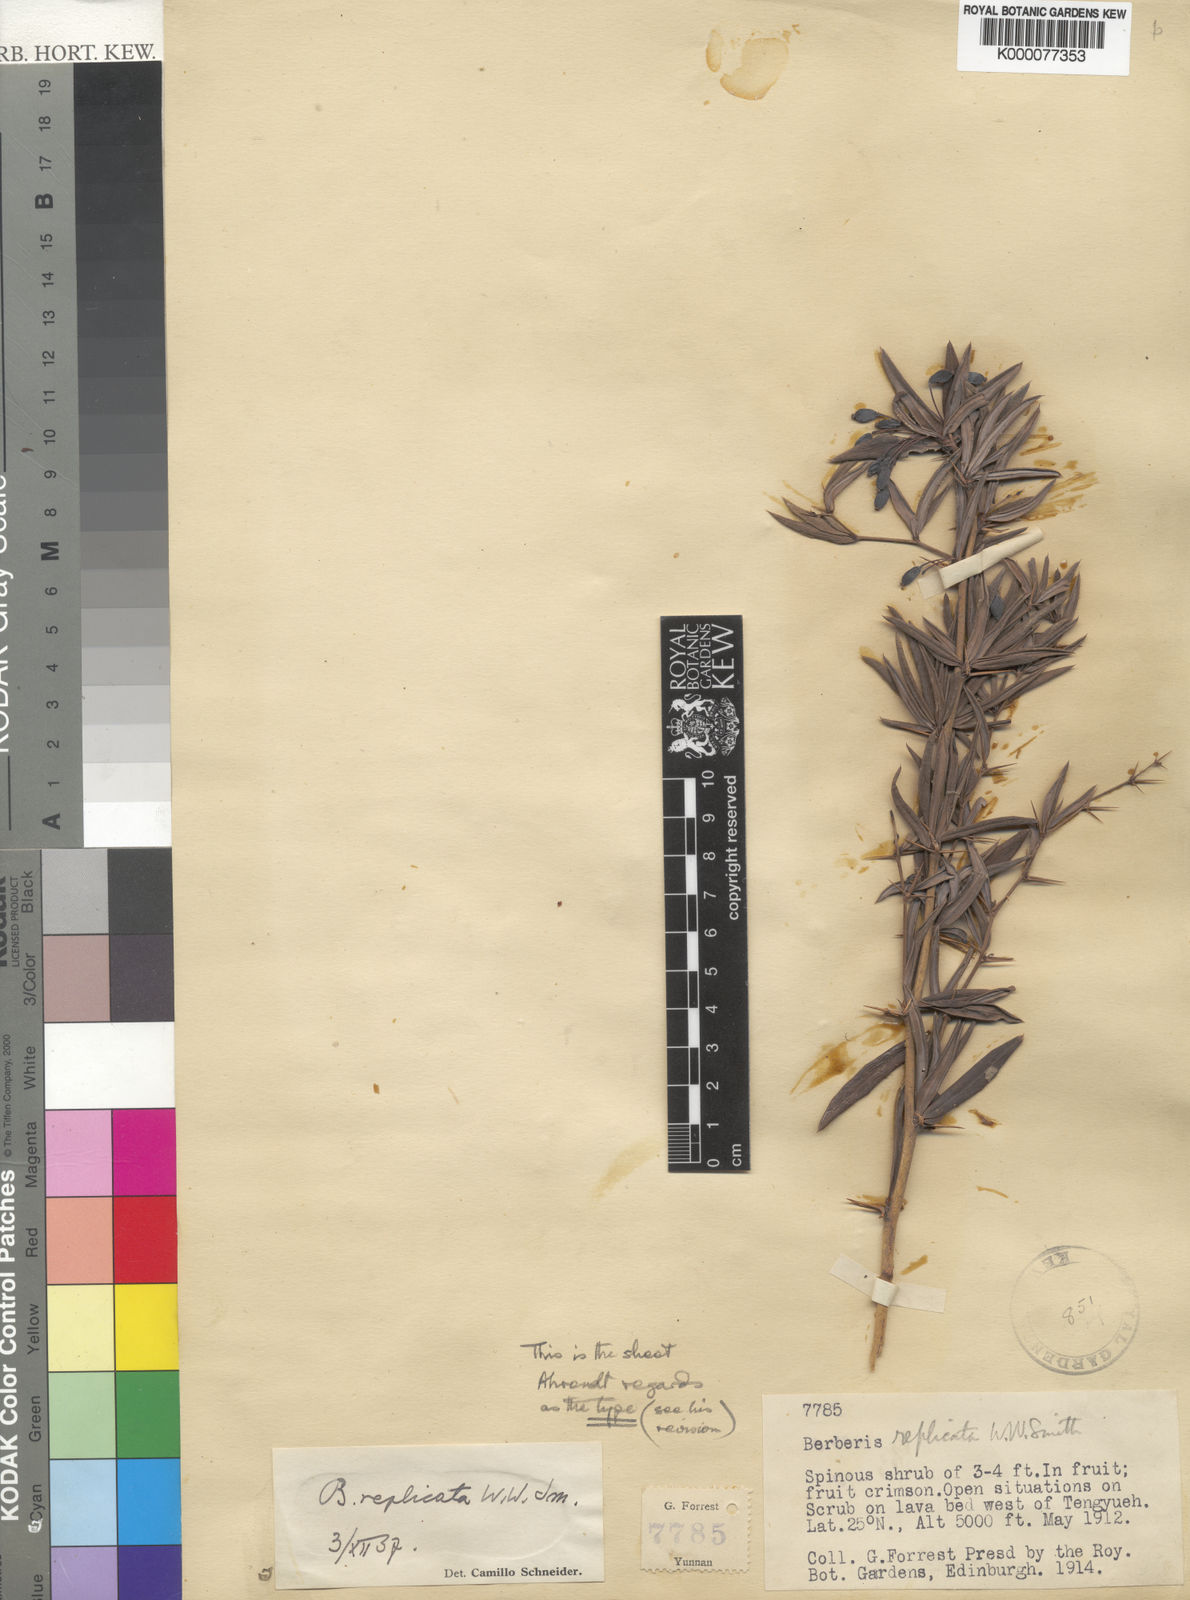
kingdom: Plantae
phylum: Tracheophyta
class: Magnoliopsida
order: Ranunculales
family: Berberidaceae
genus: Berberis
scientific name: Berberis replicata
